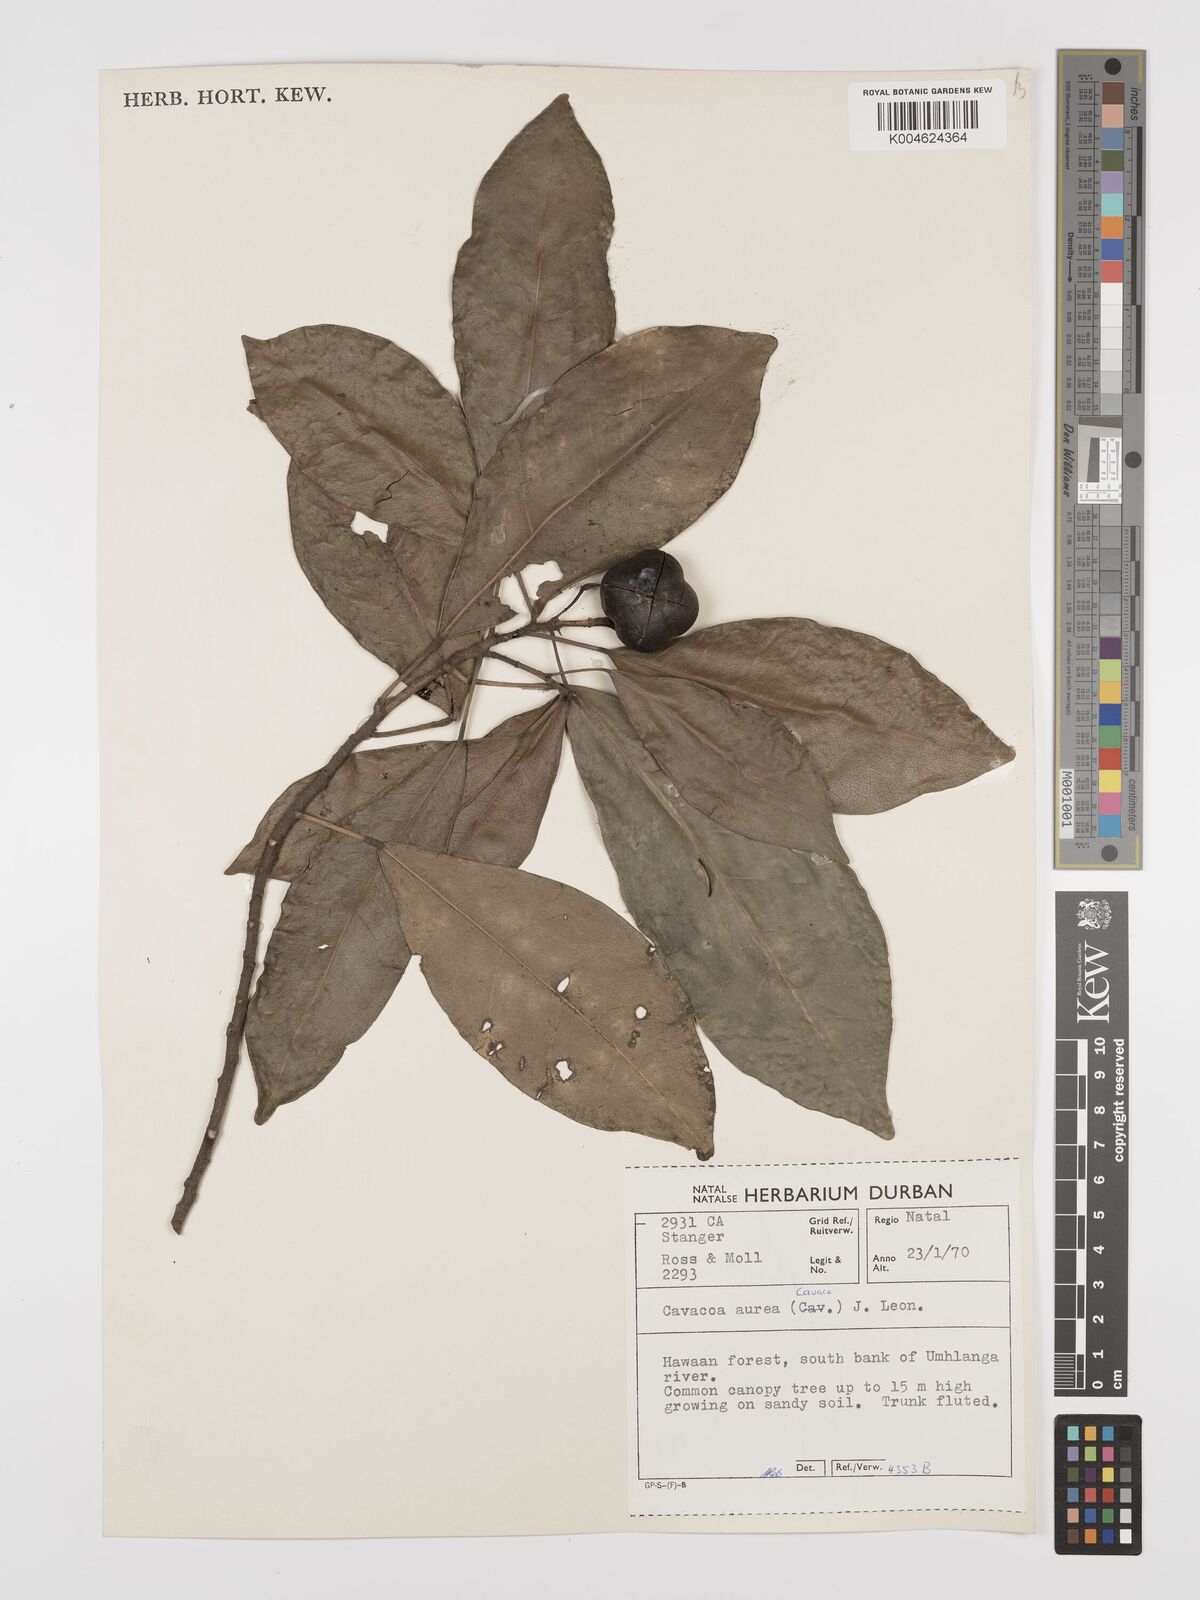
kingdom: Plantae
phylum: Tracheophyta
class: Magnoliopsida
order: Malpighiales
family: Euphorbiaceae
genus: Cavacoa
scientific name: Cavacoa aurea
